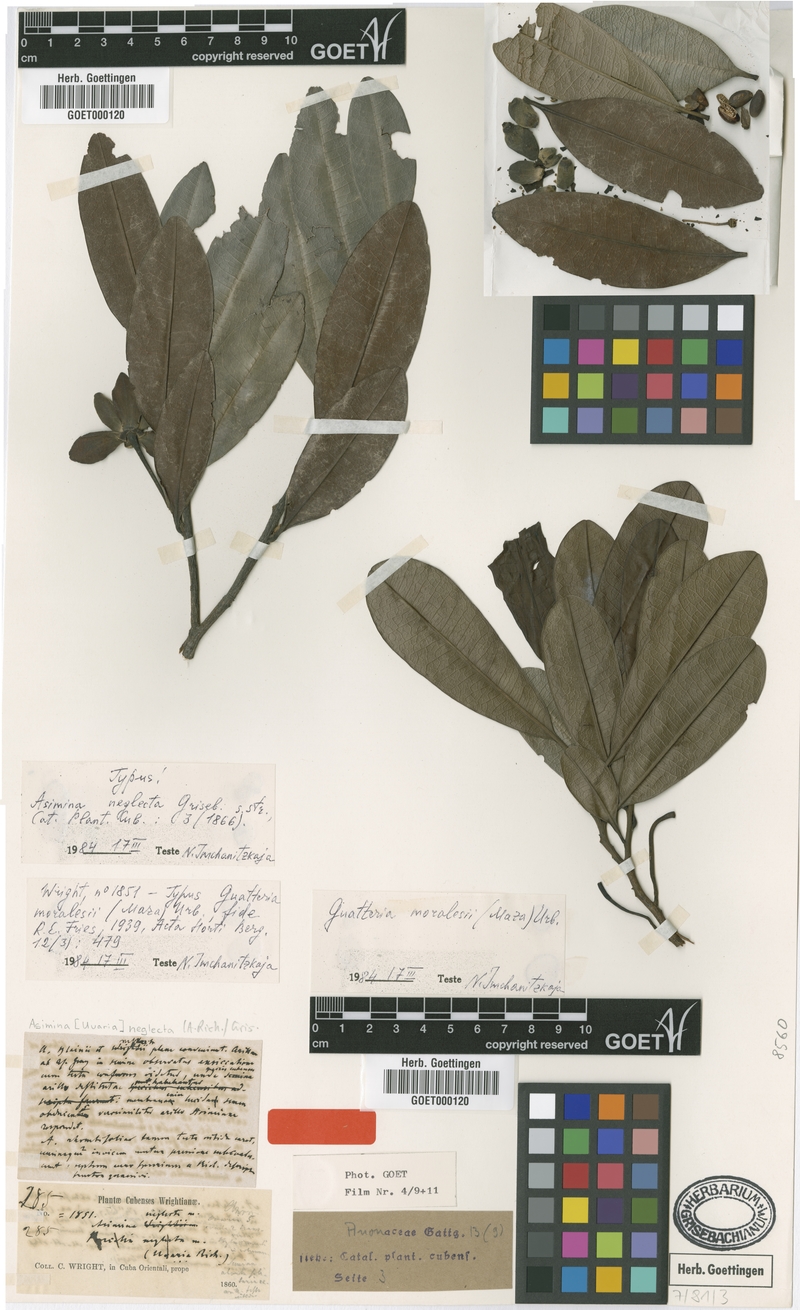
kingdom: Plantae
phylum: Tracheophyta
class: Magnoliopsida
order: Magnoliales
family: Annonaceae
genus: Guatteria
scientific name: Guatteria blainii
